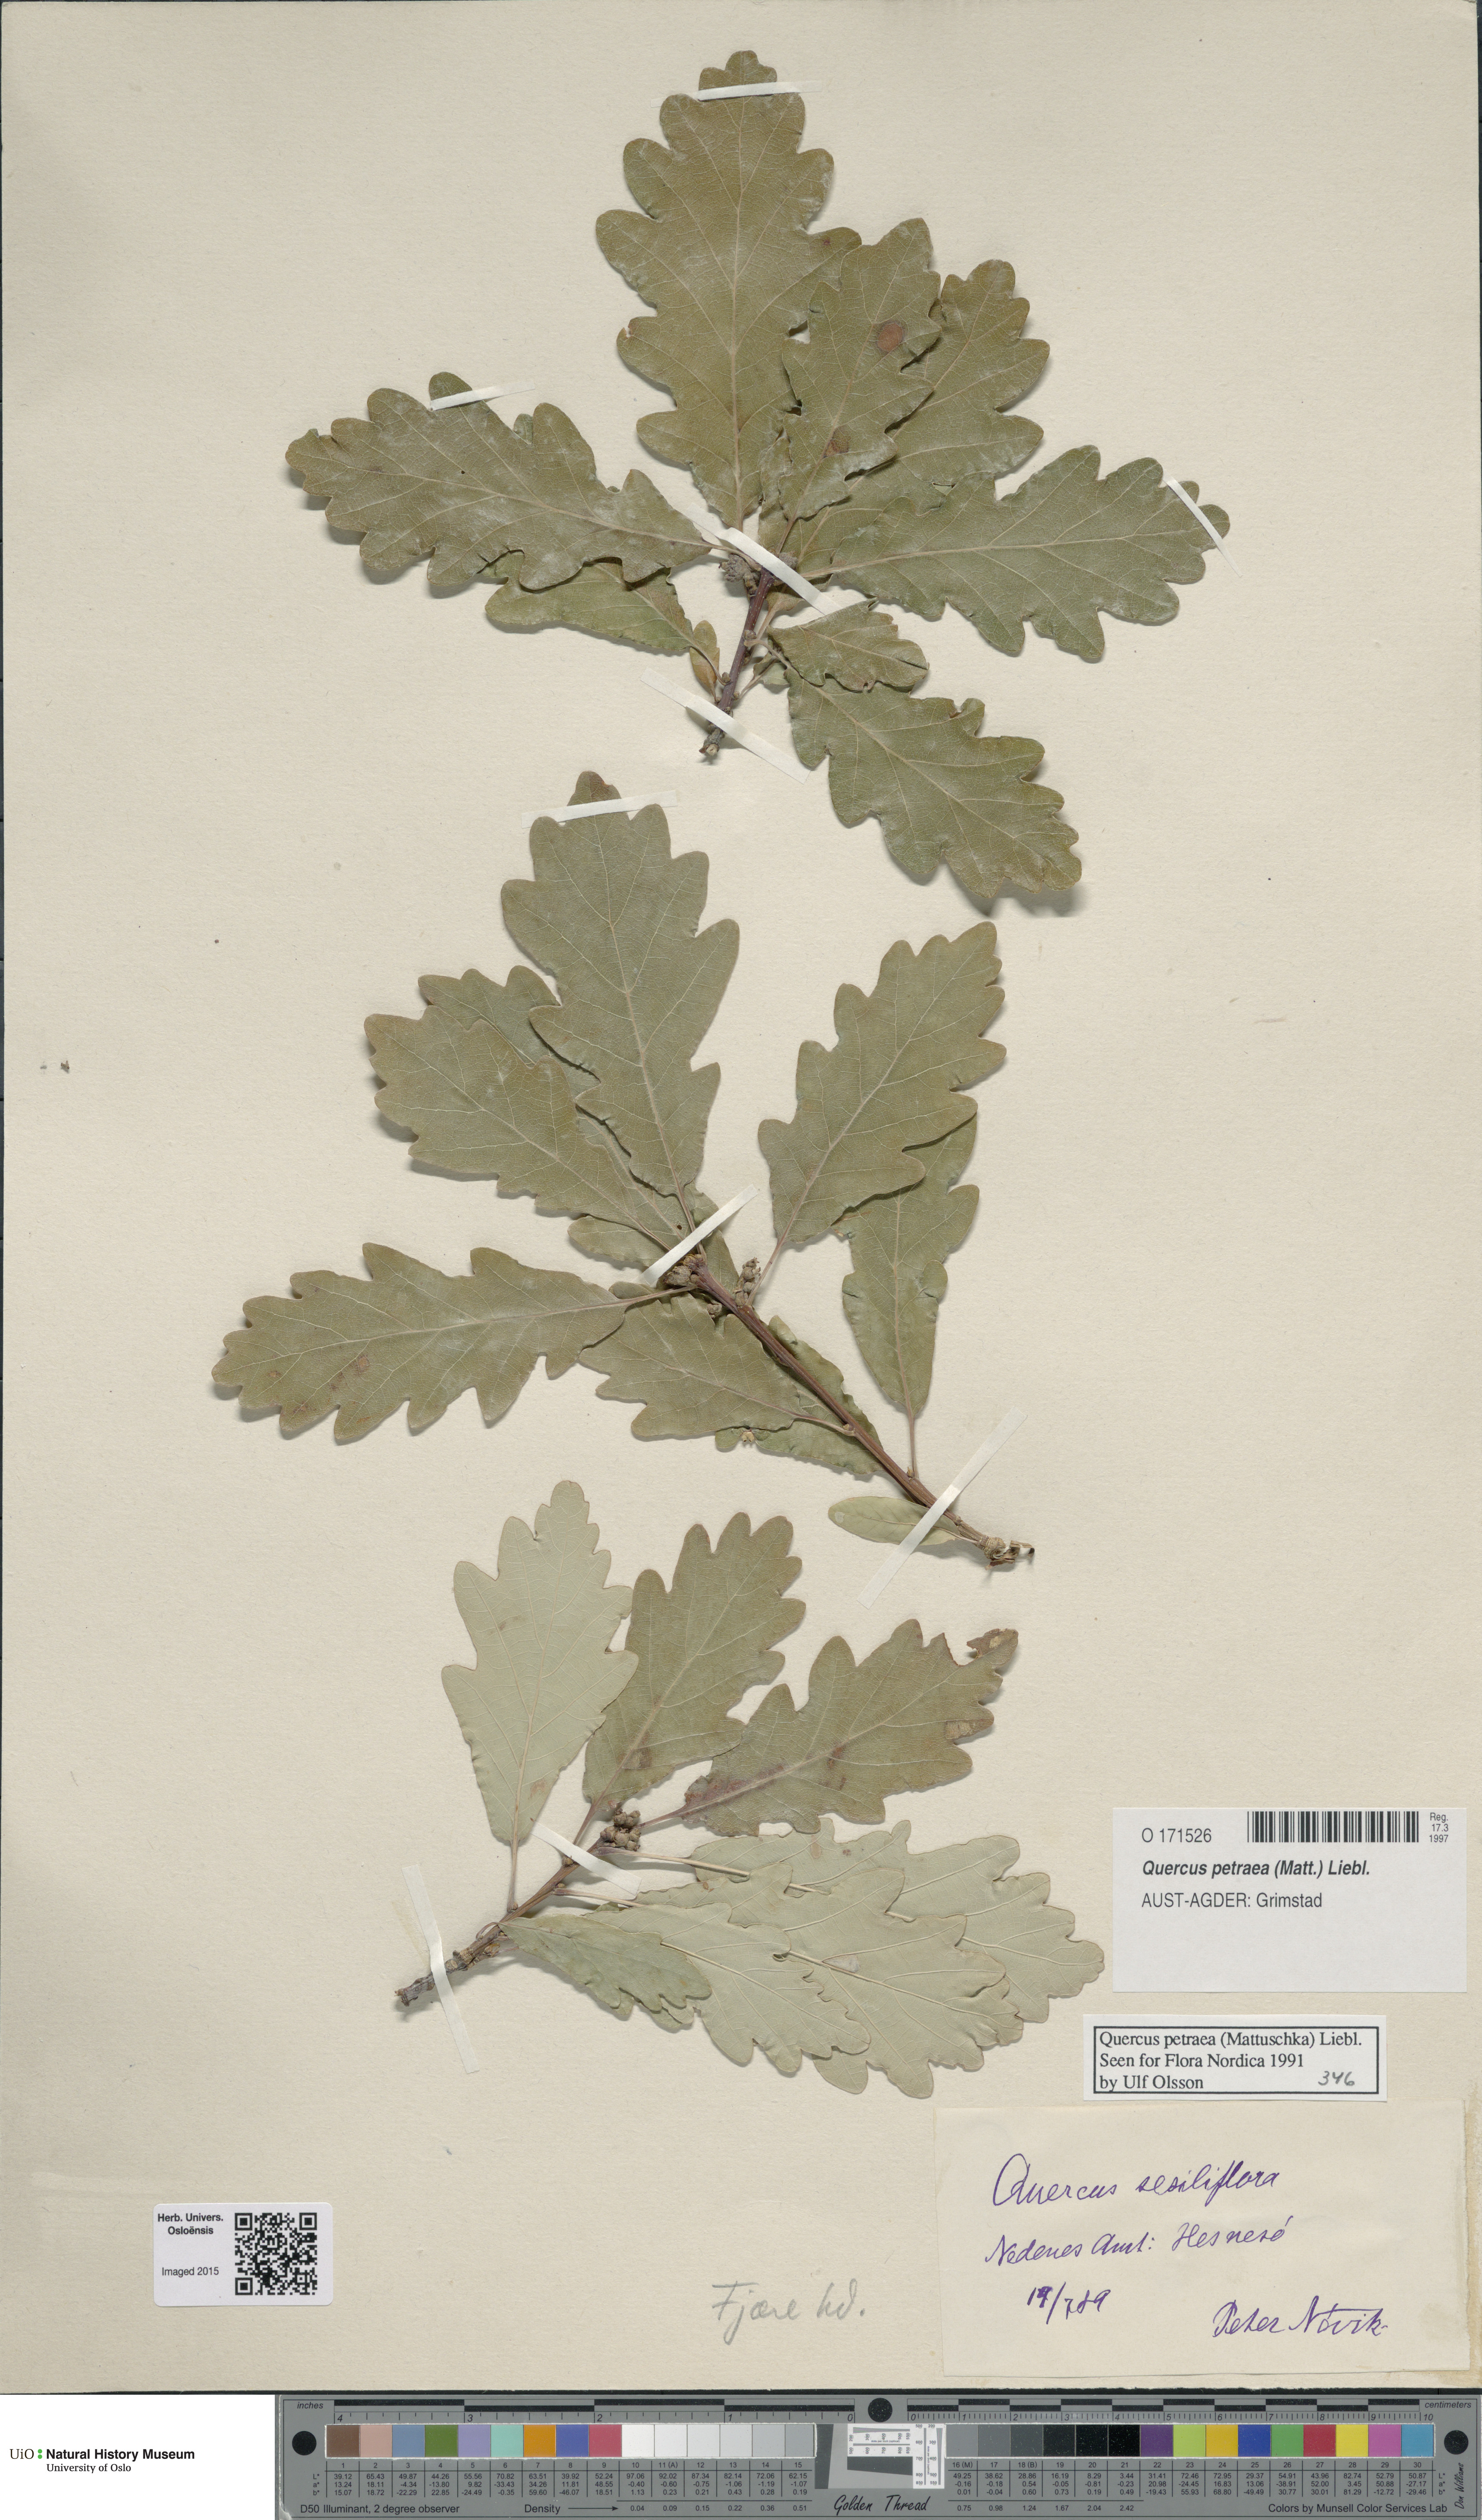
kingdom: Plantae
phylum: Tracheophyta
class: Magnoliopsida
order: Fagales
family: Fagaceae
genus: Quercus
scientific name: Quercus petraea
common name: Sessile oak
